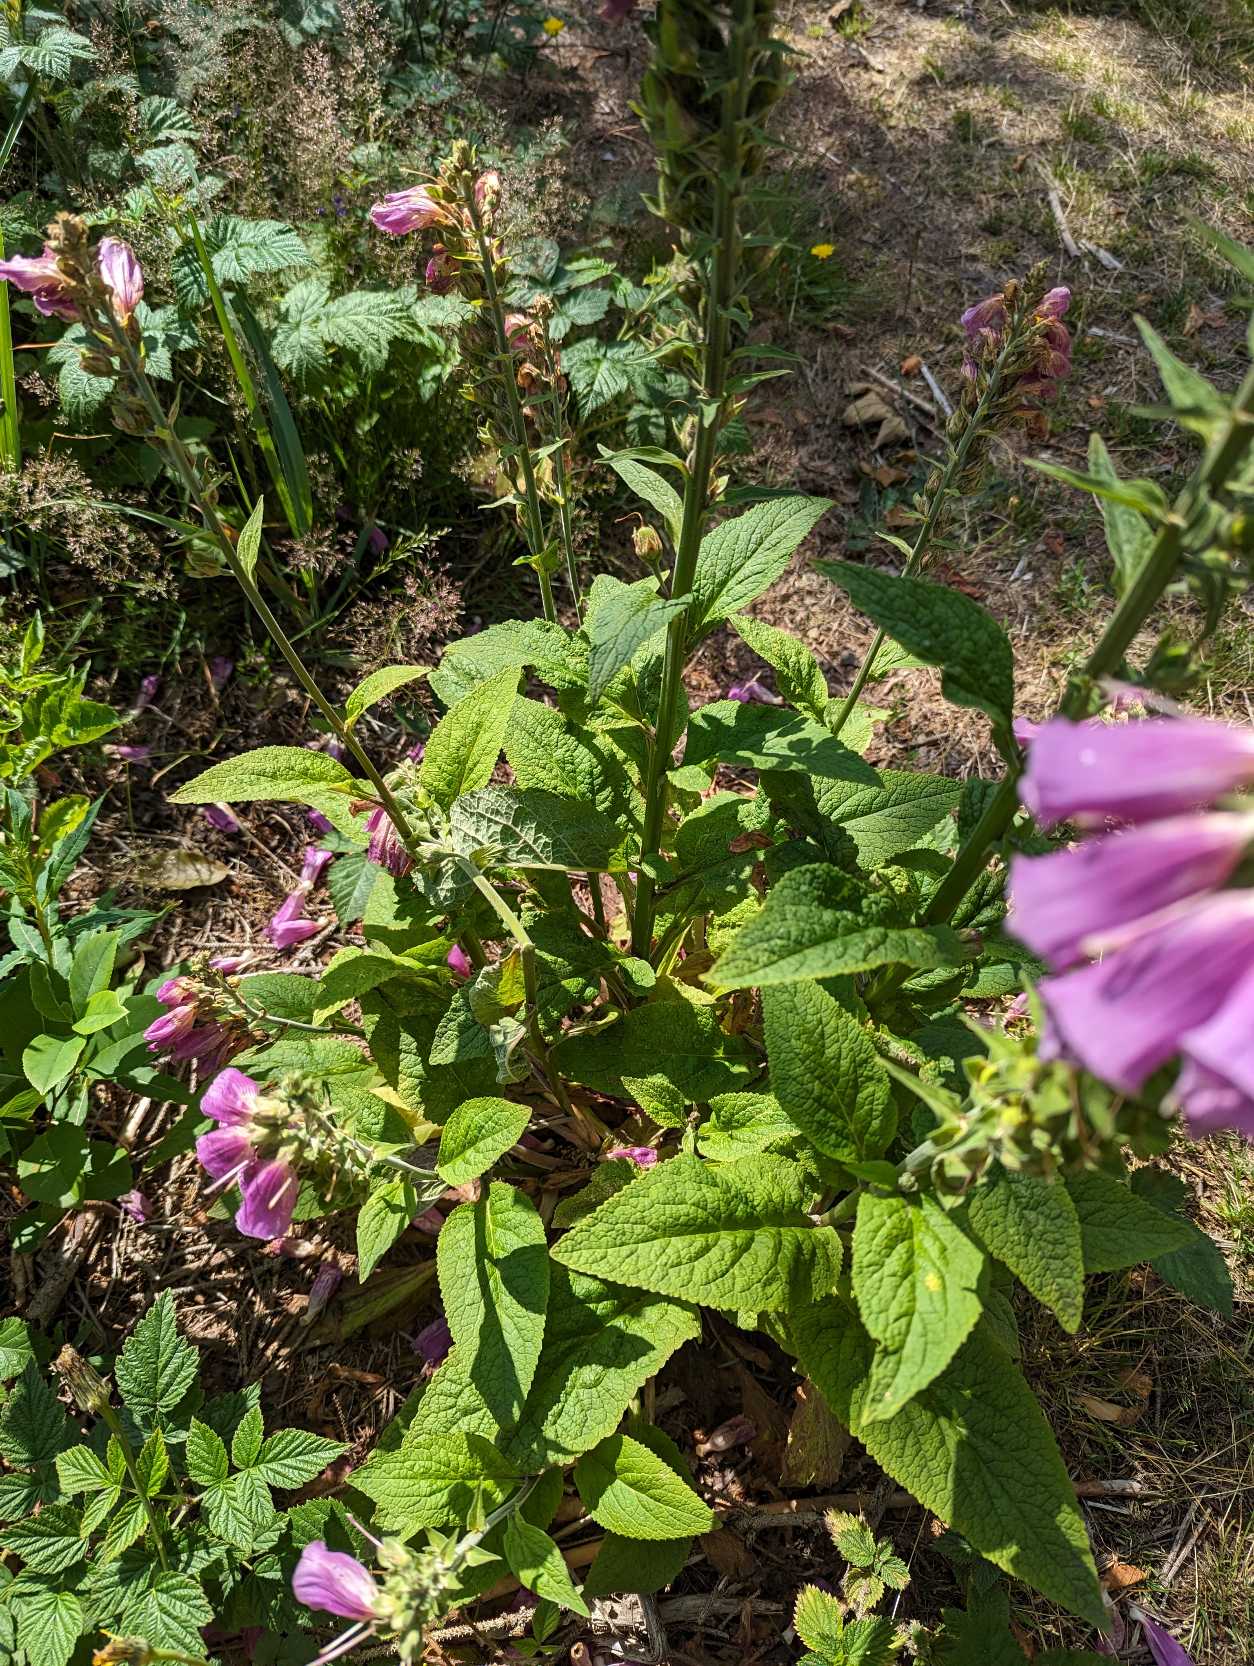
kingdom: Plantae
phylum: Tracheophyta
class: Magnoliopsida
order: Lamiales
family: Plantaginaceae
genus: Digitalis
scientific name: Digitalis purpurea
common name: Almindelig fingerbøl
